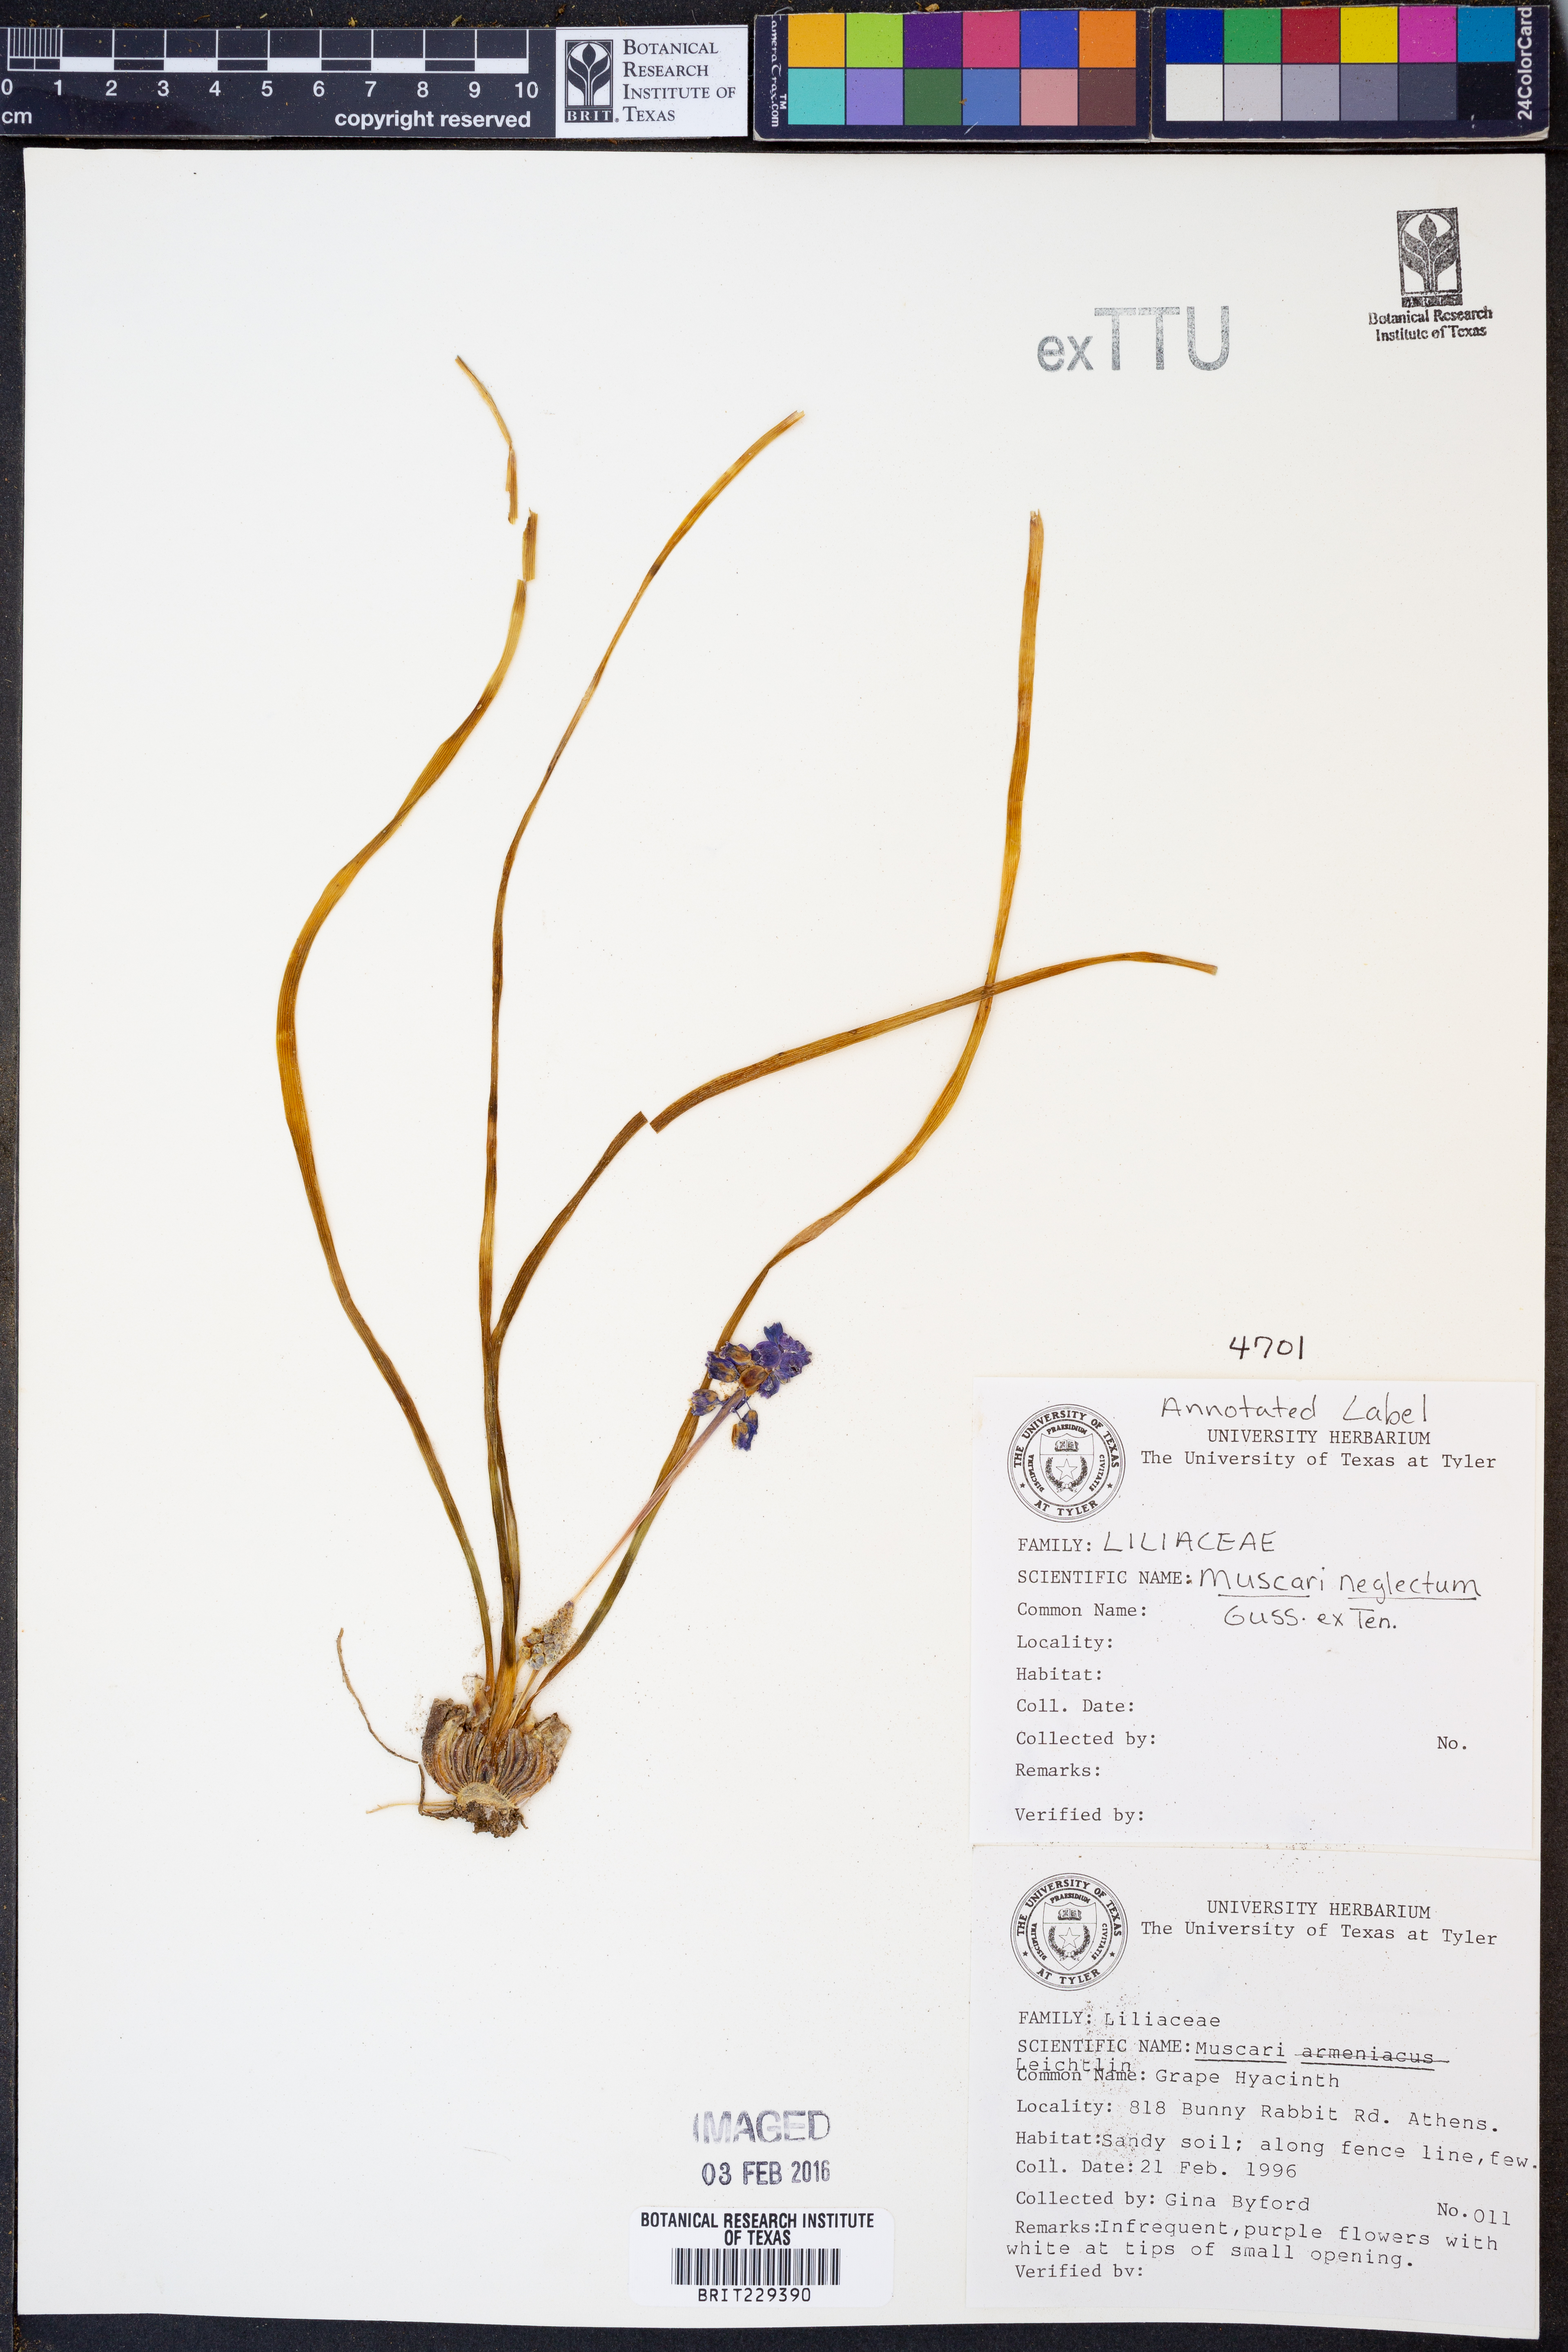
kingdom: Plantae
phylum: Tracheophyta
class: Liliopsida
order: Asparagales
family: Asparagaceae
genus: Muscari
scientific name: Muscari neglectum
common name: Grape-hyacinth
